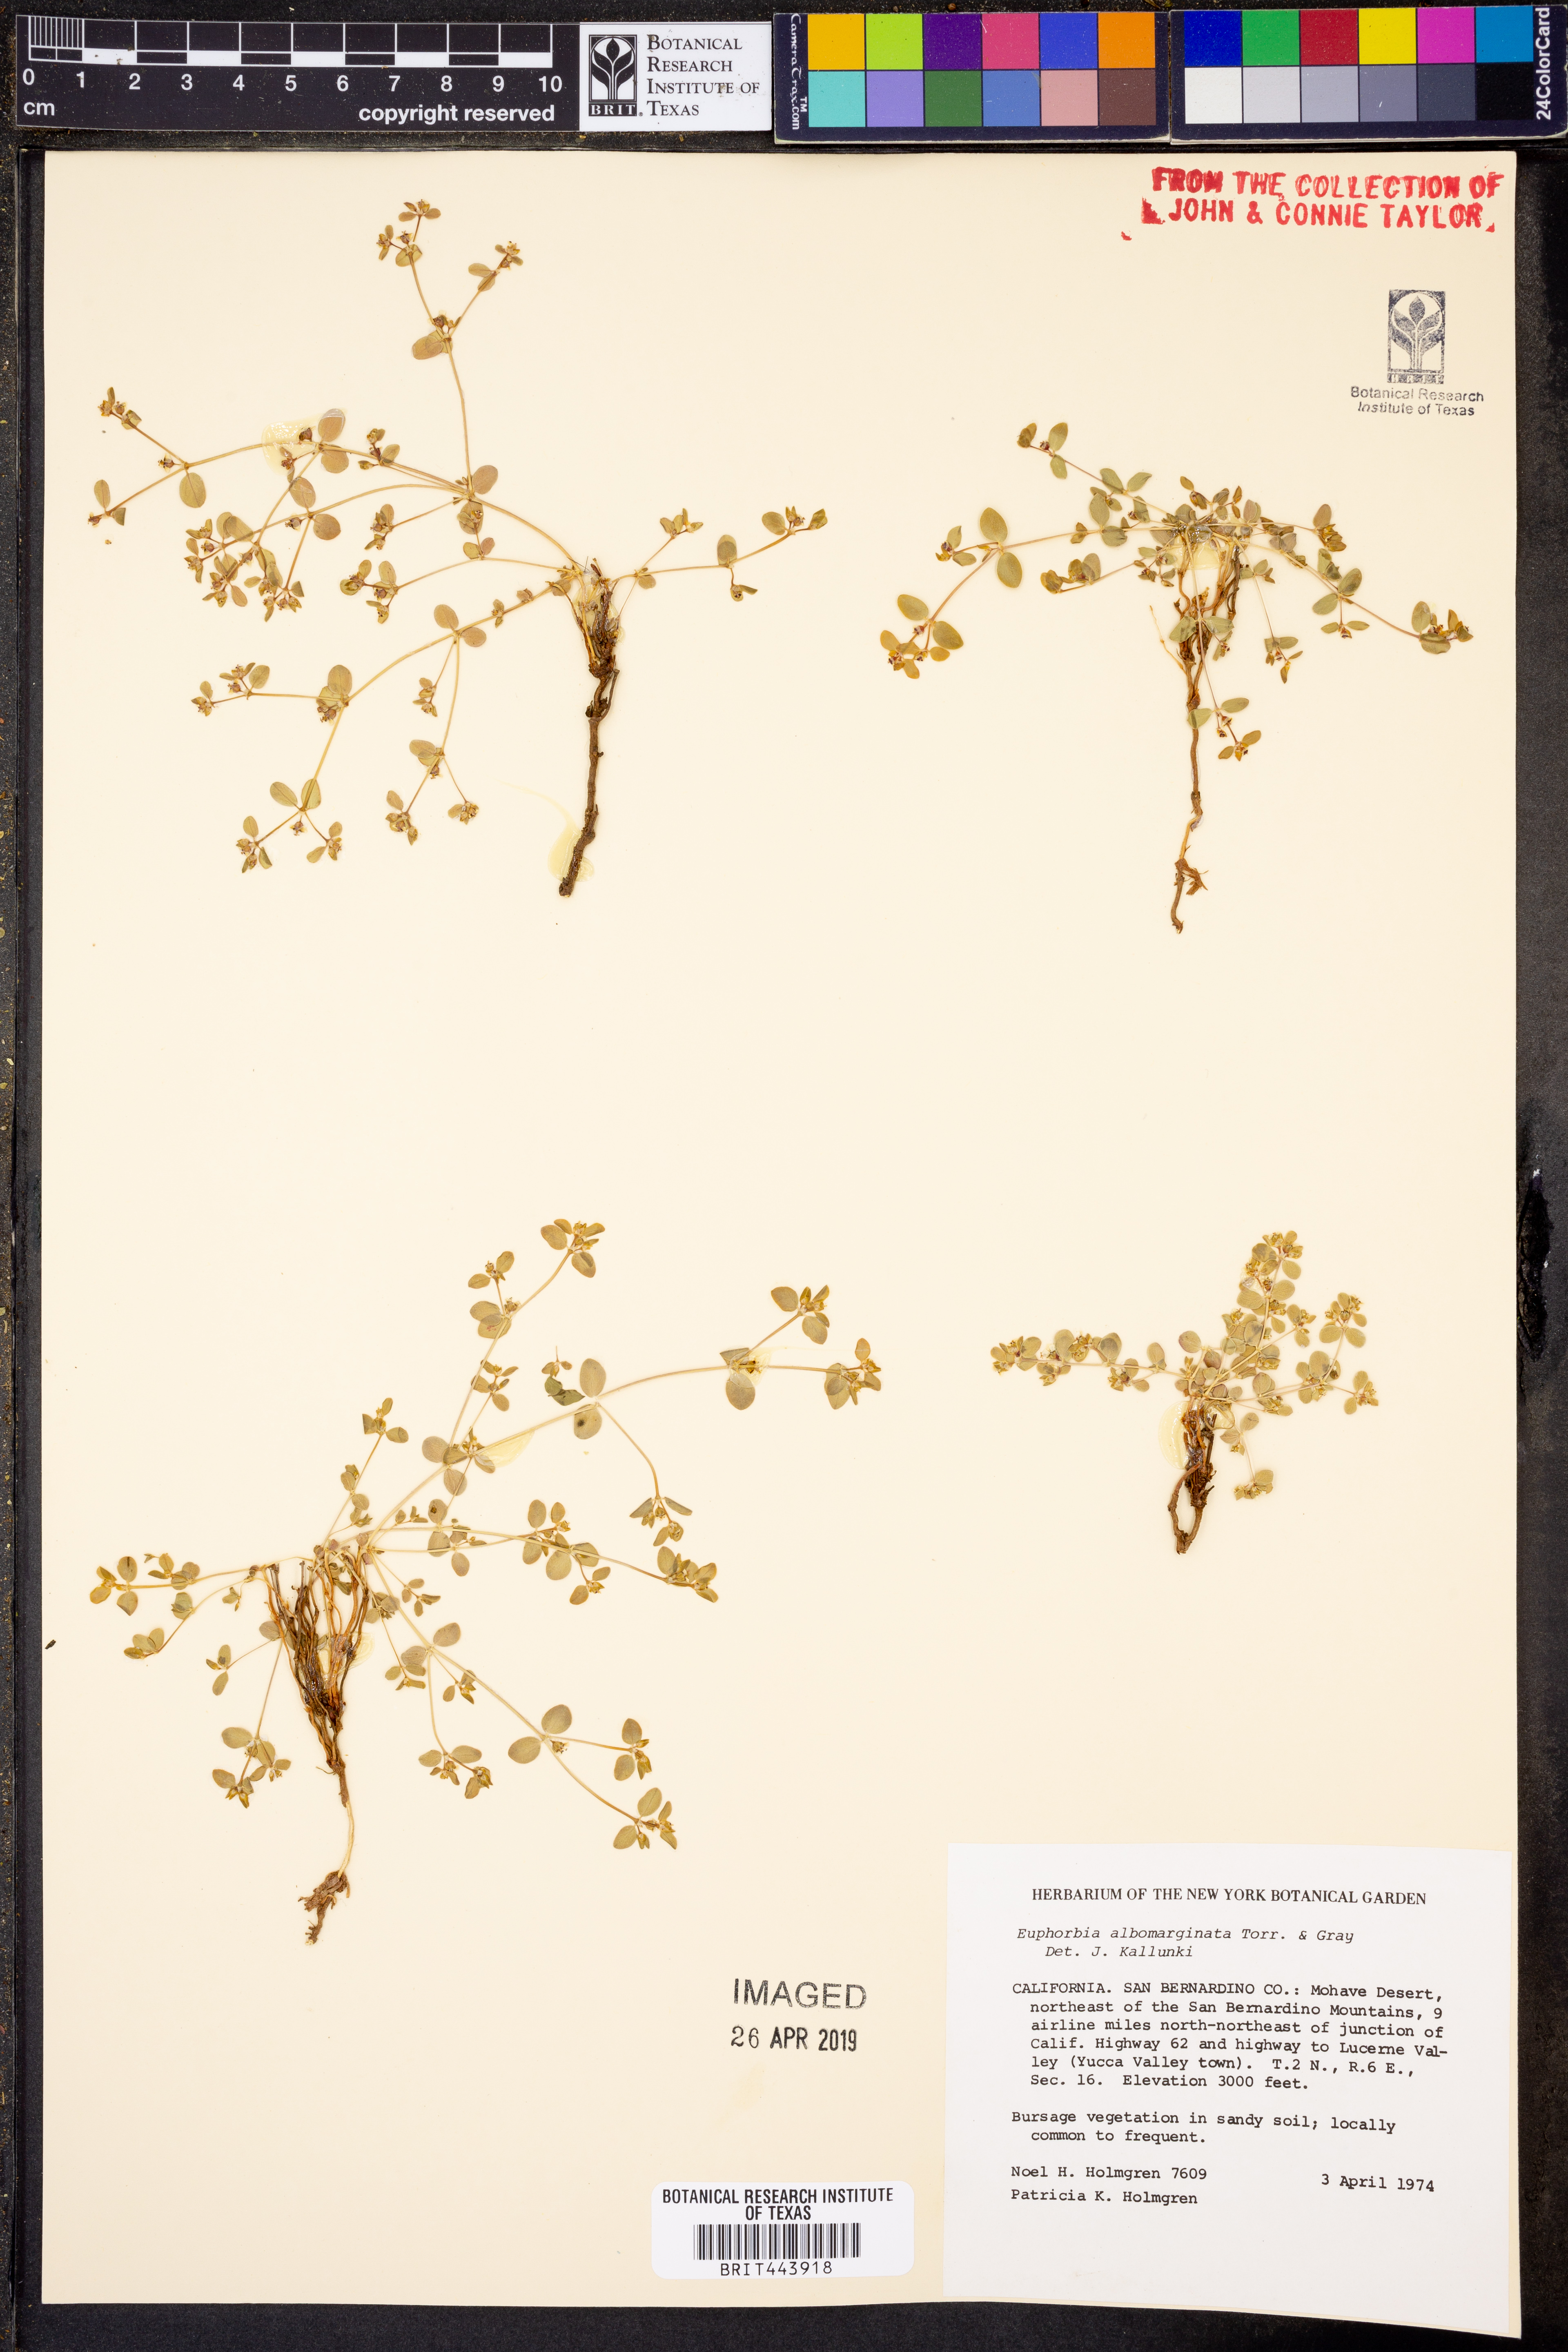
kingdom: Plantae
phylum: Tracheophyta
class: Magnoliopsida
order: Malpighiales
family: Euphorbiaceae
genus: Euphorbia
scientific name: Euphorbia albomarginata
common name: Whitemargin sandmat
